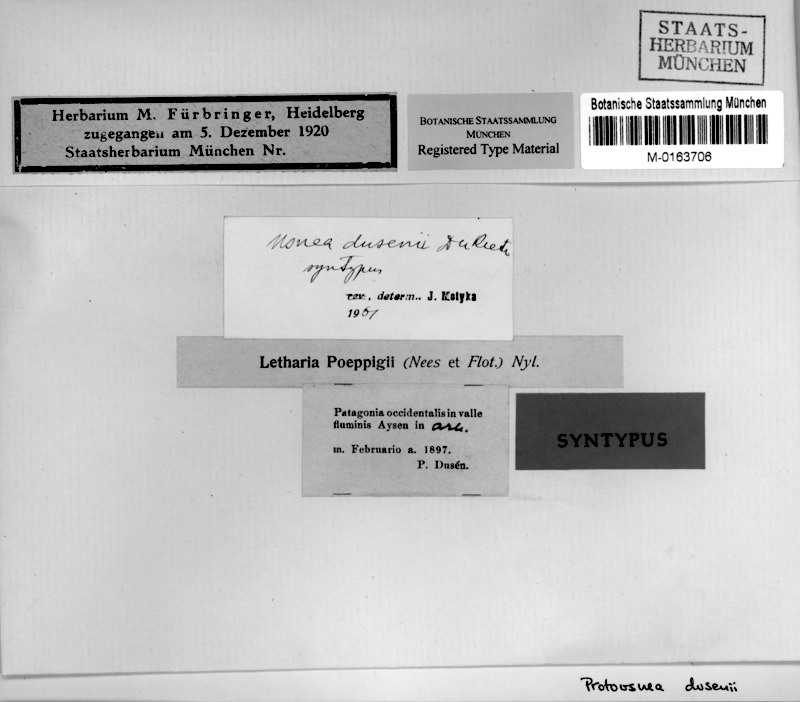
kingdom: Fungi
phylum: Ascomycota
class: Lecanoromycetes
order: Lecanorales
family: Parmeliaceae
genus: Protousnea
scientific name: Protousnea dusenii
